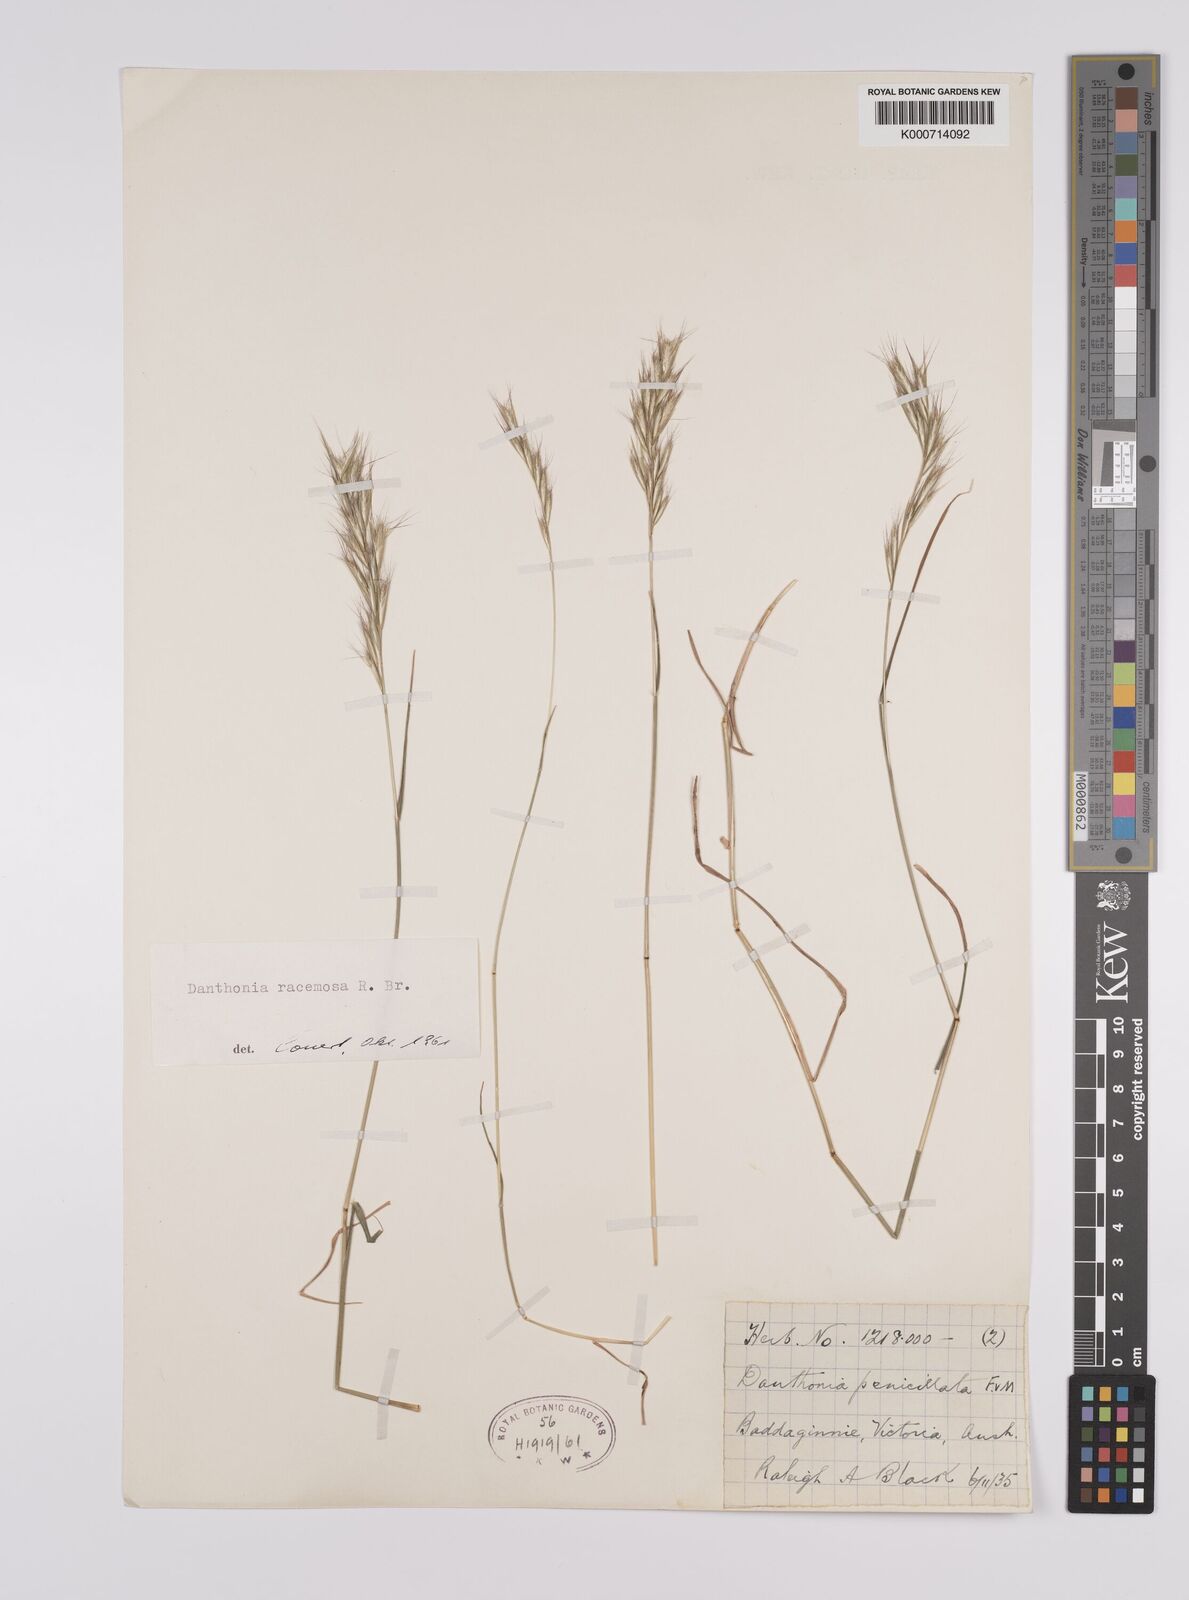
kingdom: Plantae
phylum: Tracheophyta
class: Liliopsida
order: Poales
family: Poaceae
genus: Rytidosperma
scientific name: Rytidosperma racemosum
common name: Wallaby-grass
